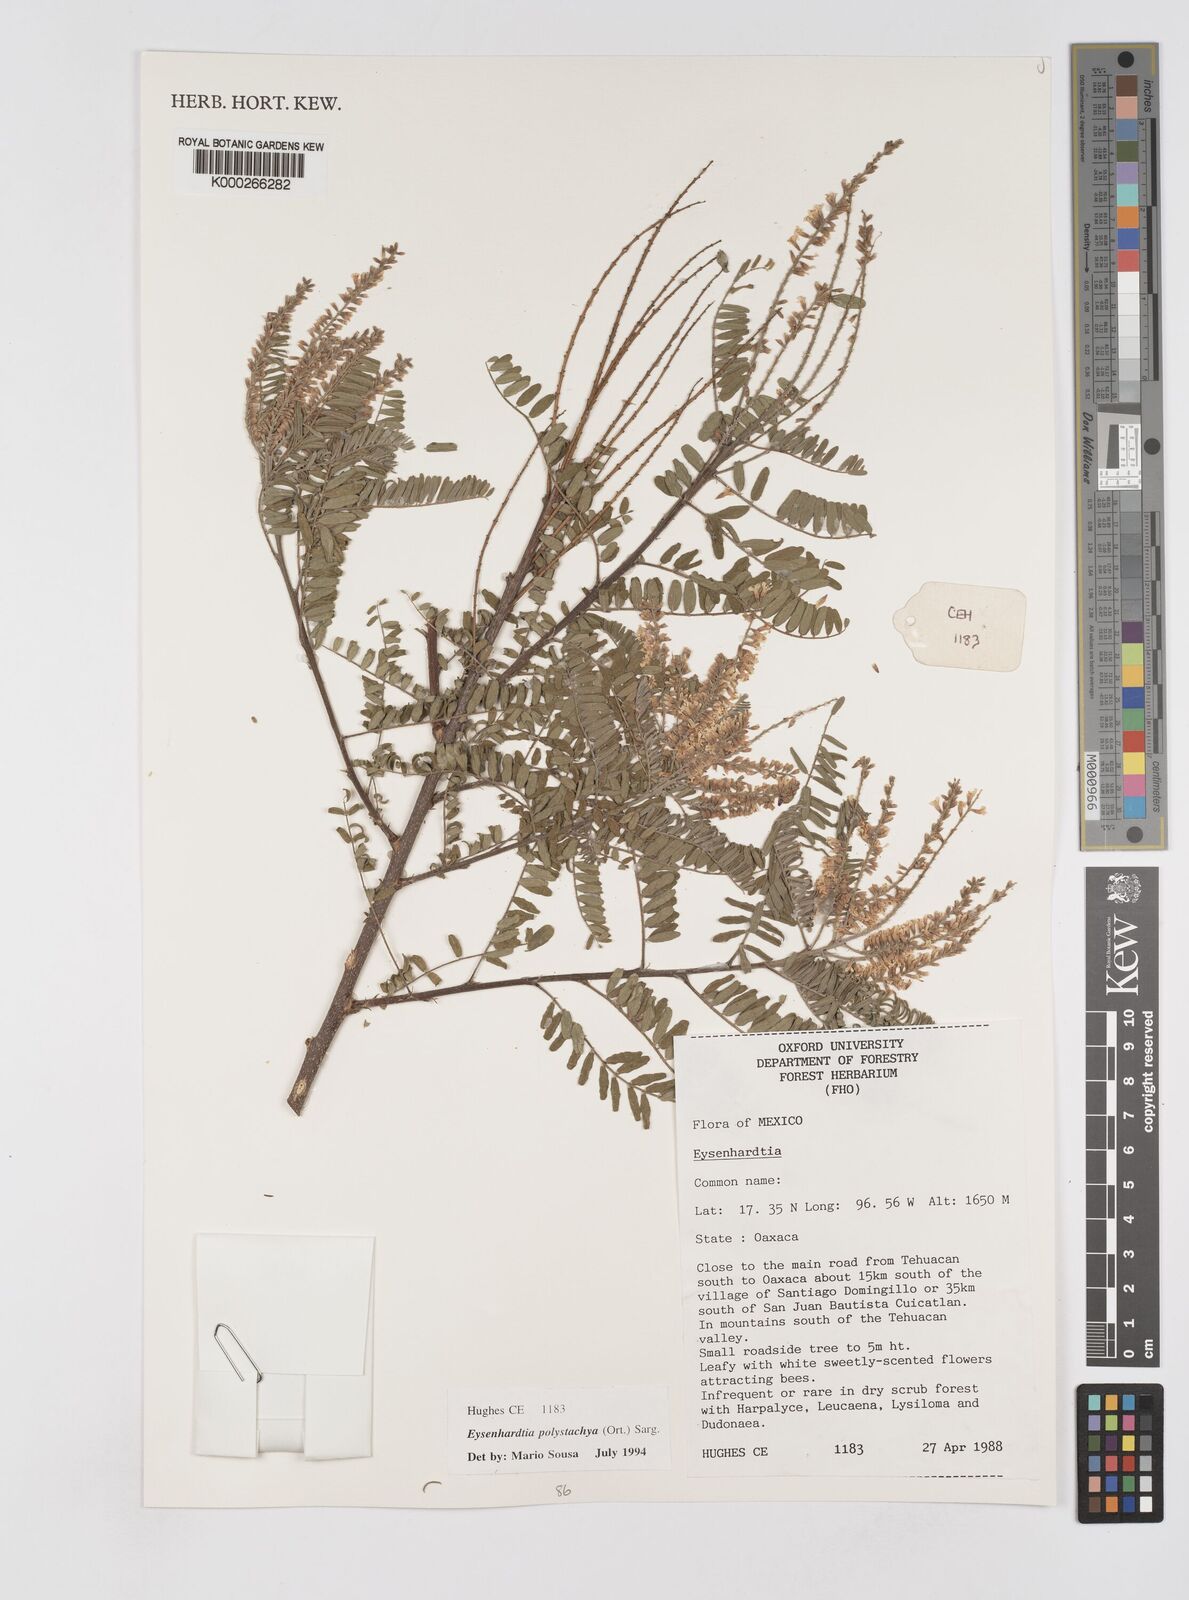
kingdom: Plantae
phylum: Tracheophyta
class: Magnoliopsida
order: Fabales
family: Fabaceae
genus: Eysenhardtia
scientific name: Eysenhardtia polystachya
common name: Kidneywood
